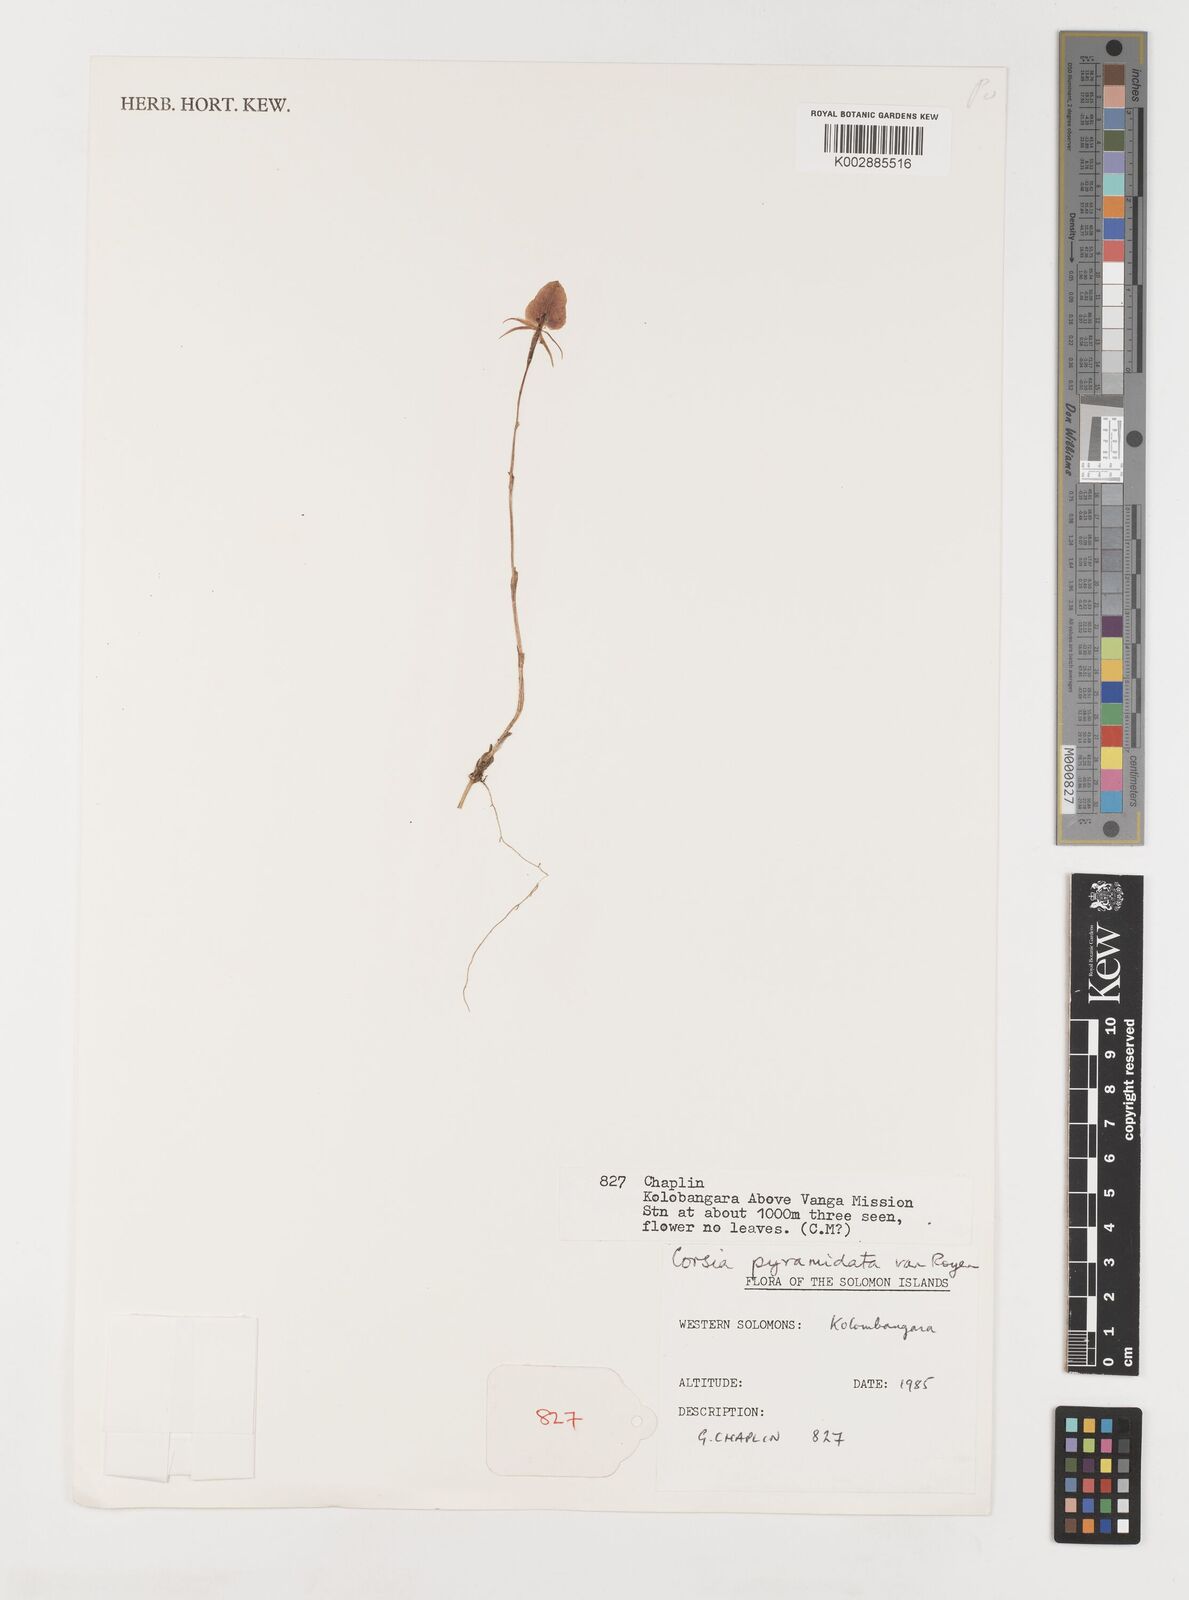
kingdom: Plantae
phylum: Tracheophyta
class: Liliopsida
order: Liliales
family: Corsiaceae
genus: Corsia
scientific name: Corsia pyramidata
